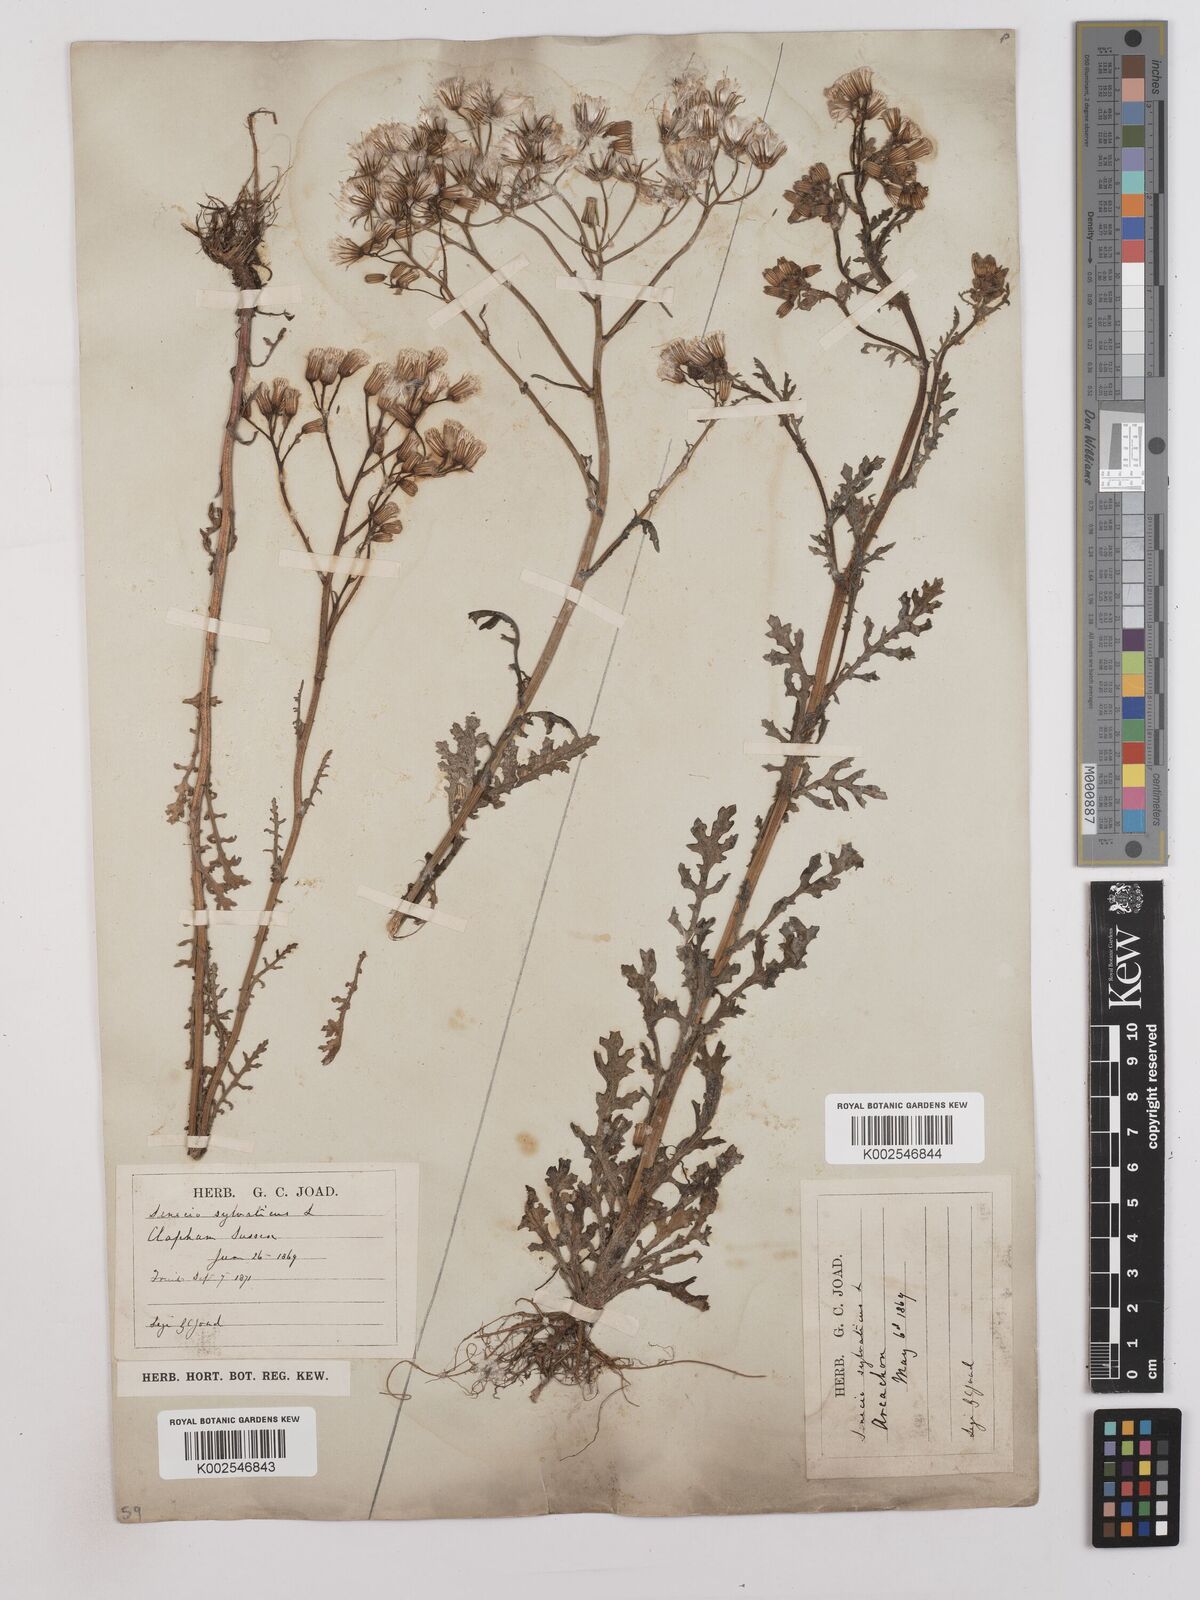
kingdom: Plantae
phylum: Tracheophyta
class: Magnoliopsida
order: Asterales
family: Asteraceae
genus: Senecio
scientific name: Senecio sylvaticus
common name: Woodland ragwort
